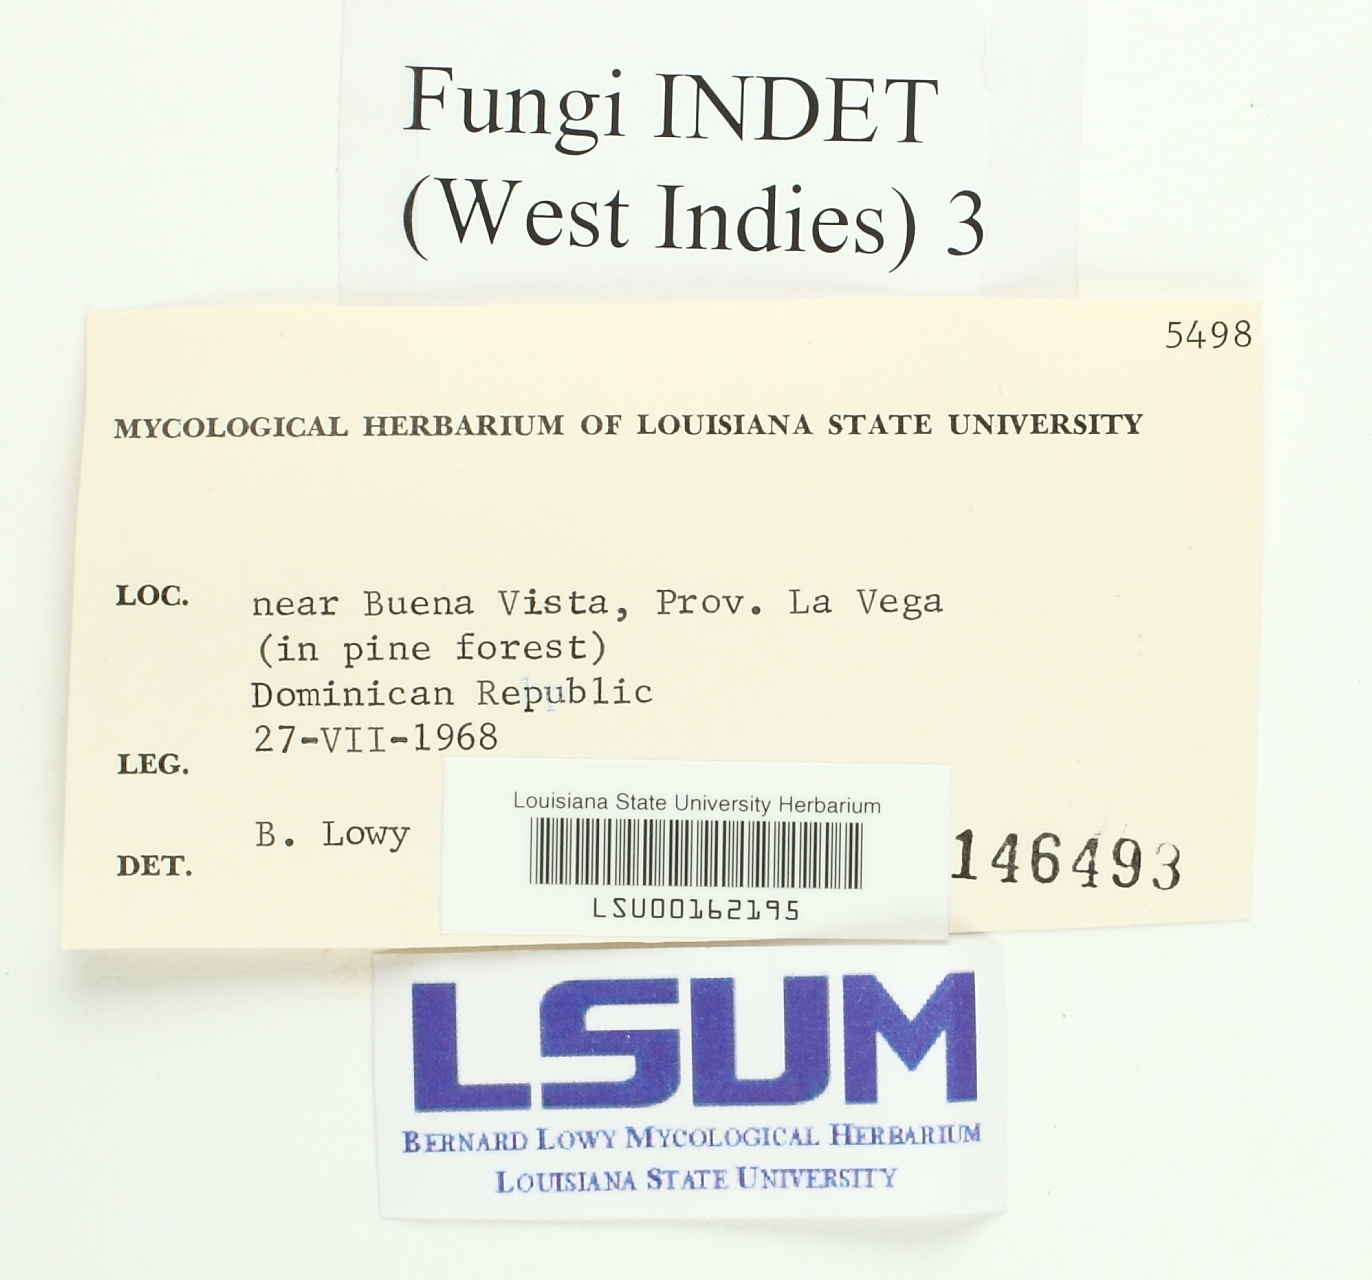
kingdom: Fungi
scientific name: Fungi
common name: Fungi
